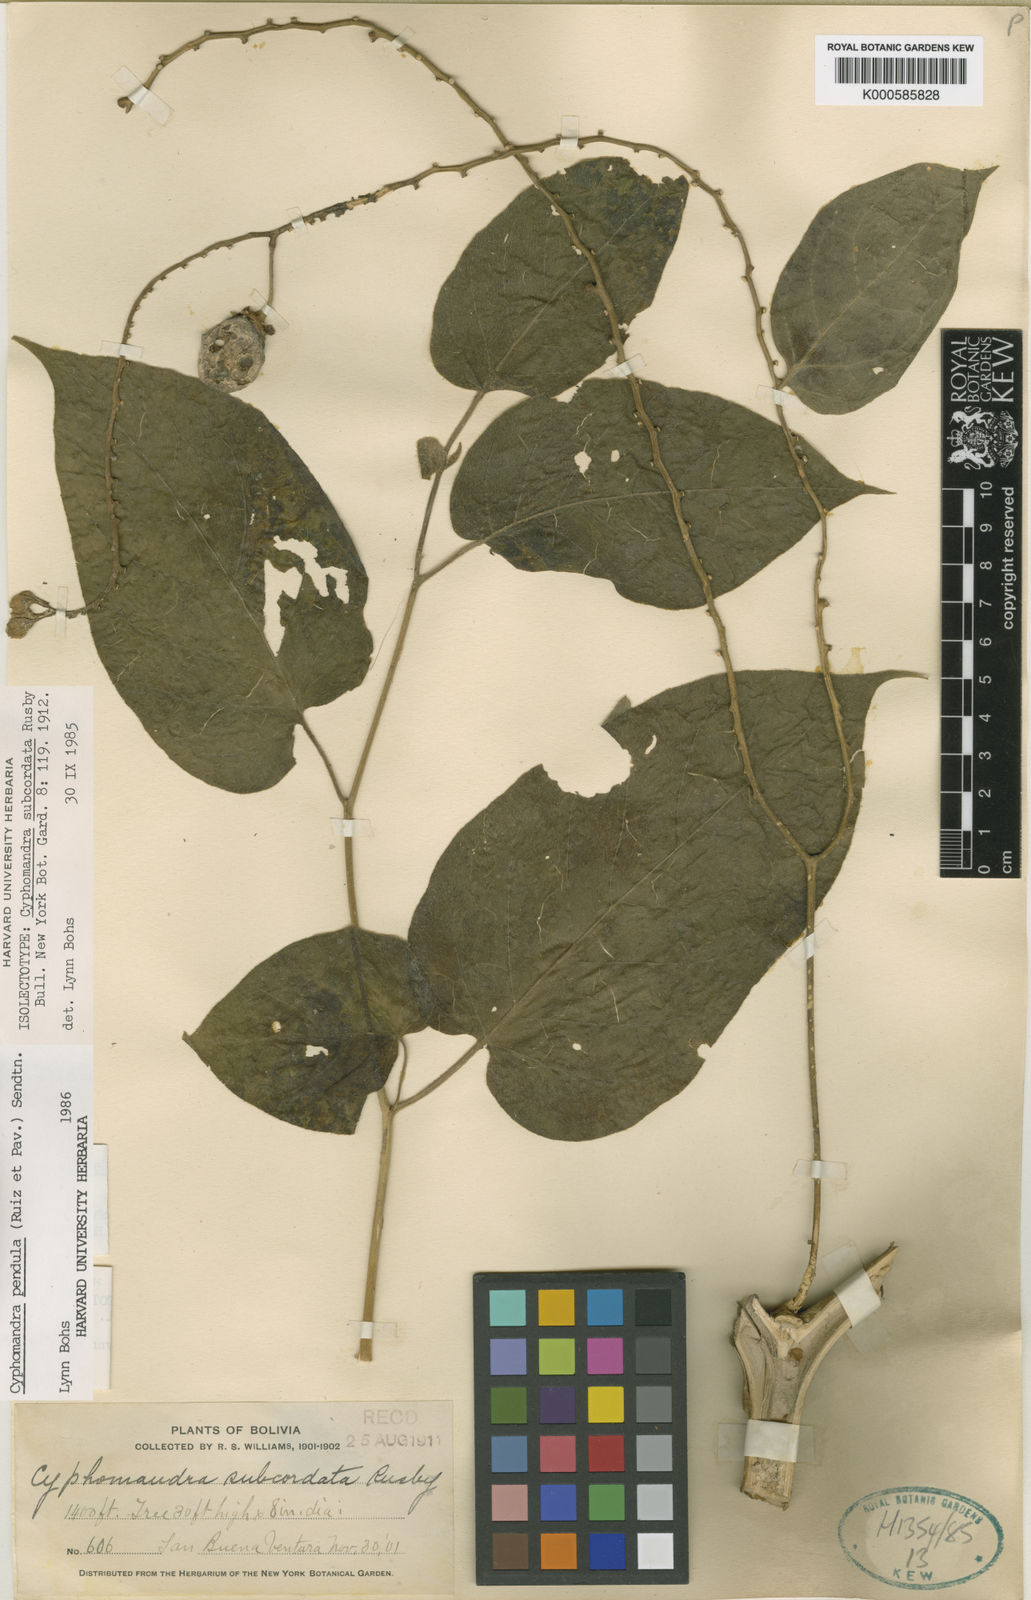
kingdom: Plantae
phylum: Tracheophyta
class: Magnoliopsida
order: Solanales
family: Solanaceae
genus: Solanum
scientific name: Solanum pendulum
